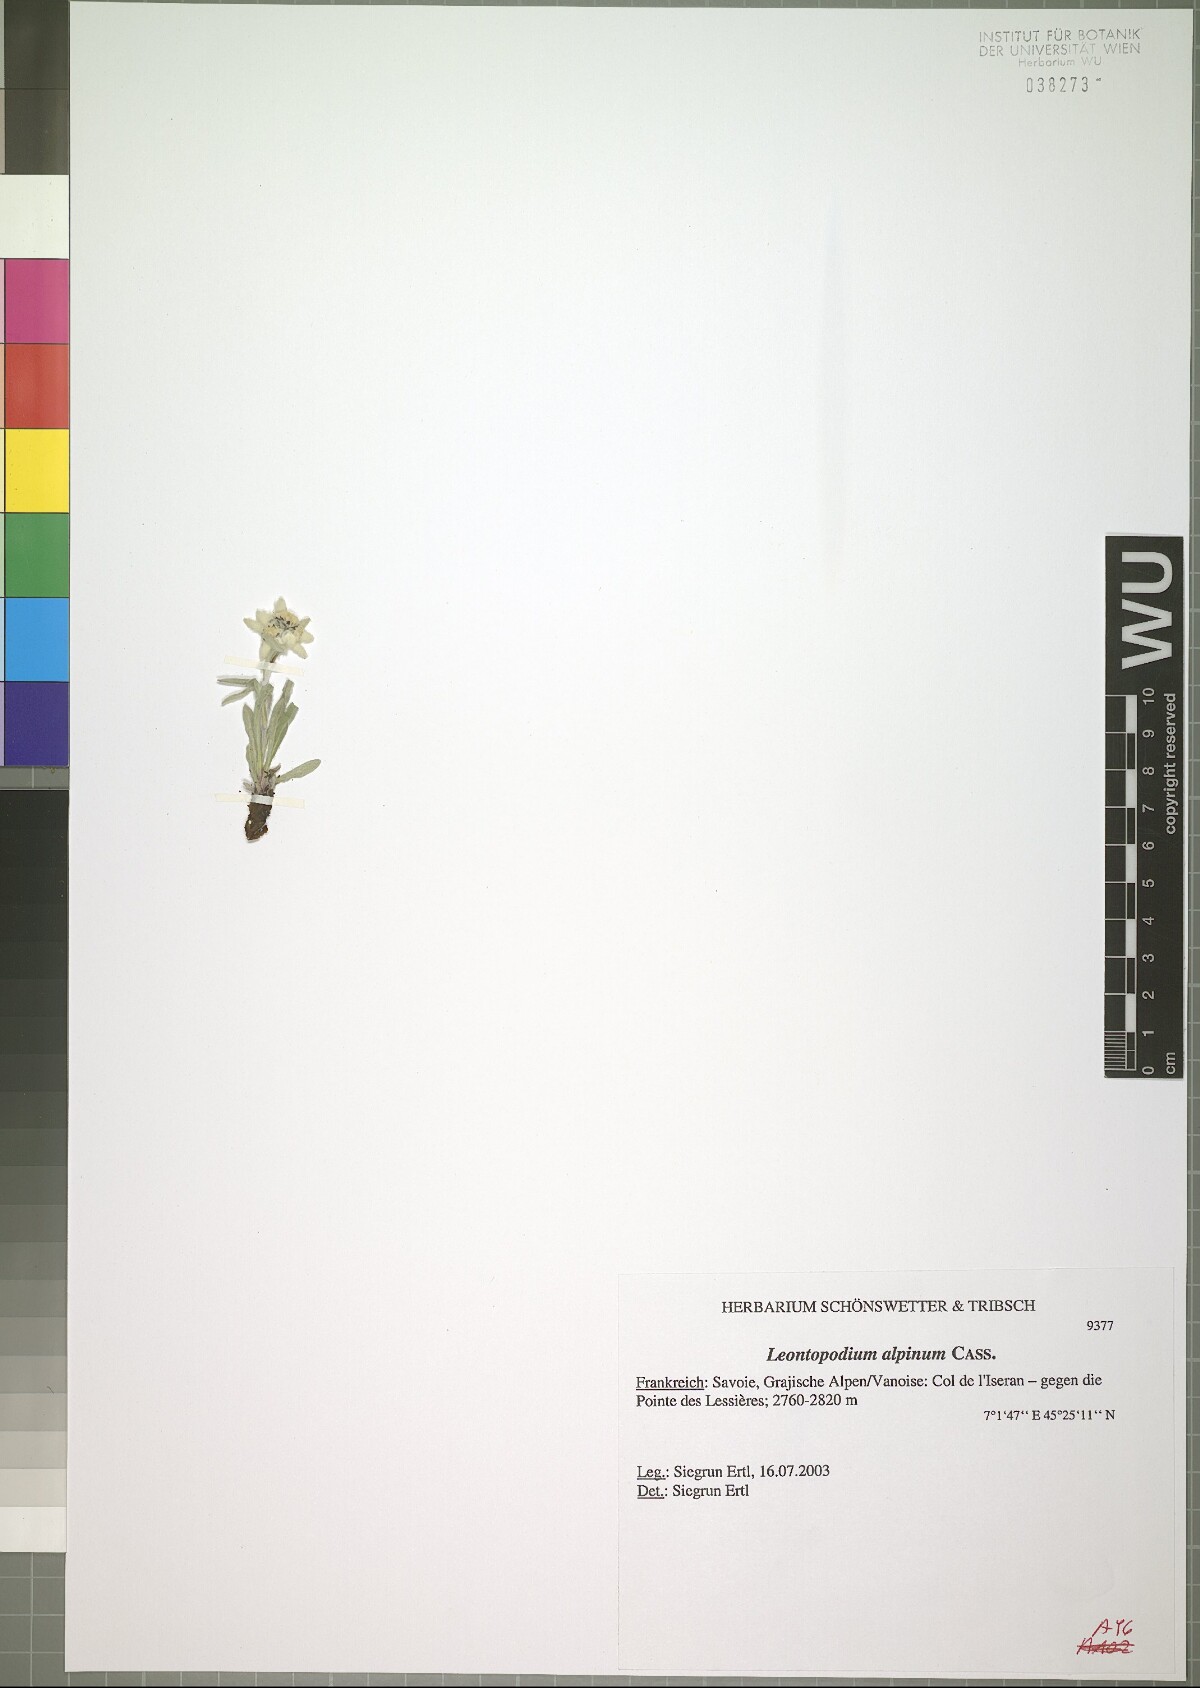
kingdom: Plantae
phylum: Tracheophyta
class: Magnoliopsida
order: Asterales
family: Asteraceae
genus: Leontopodium
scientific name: Leontopodium nivale
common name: Edelweiss
